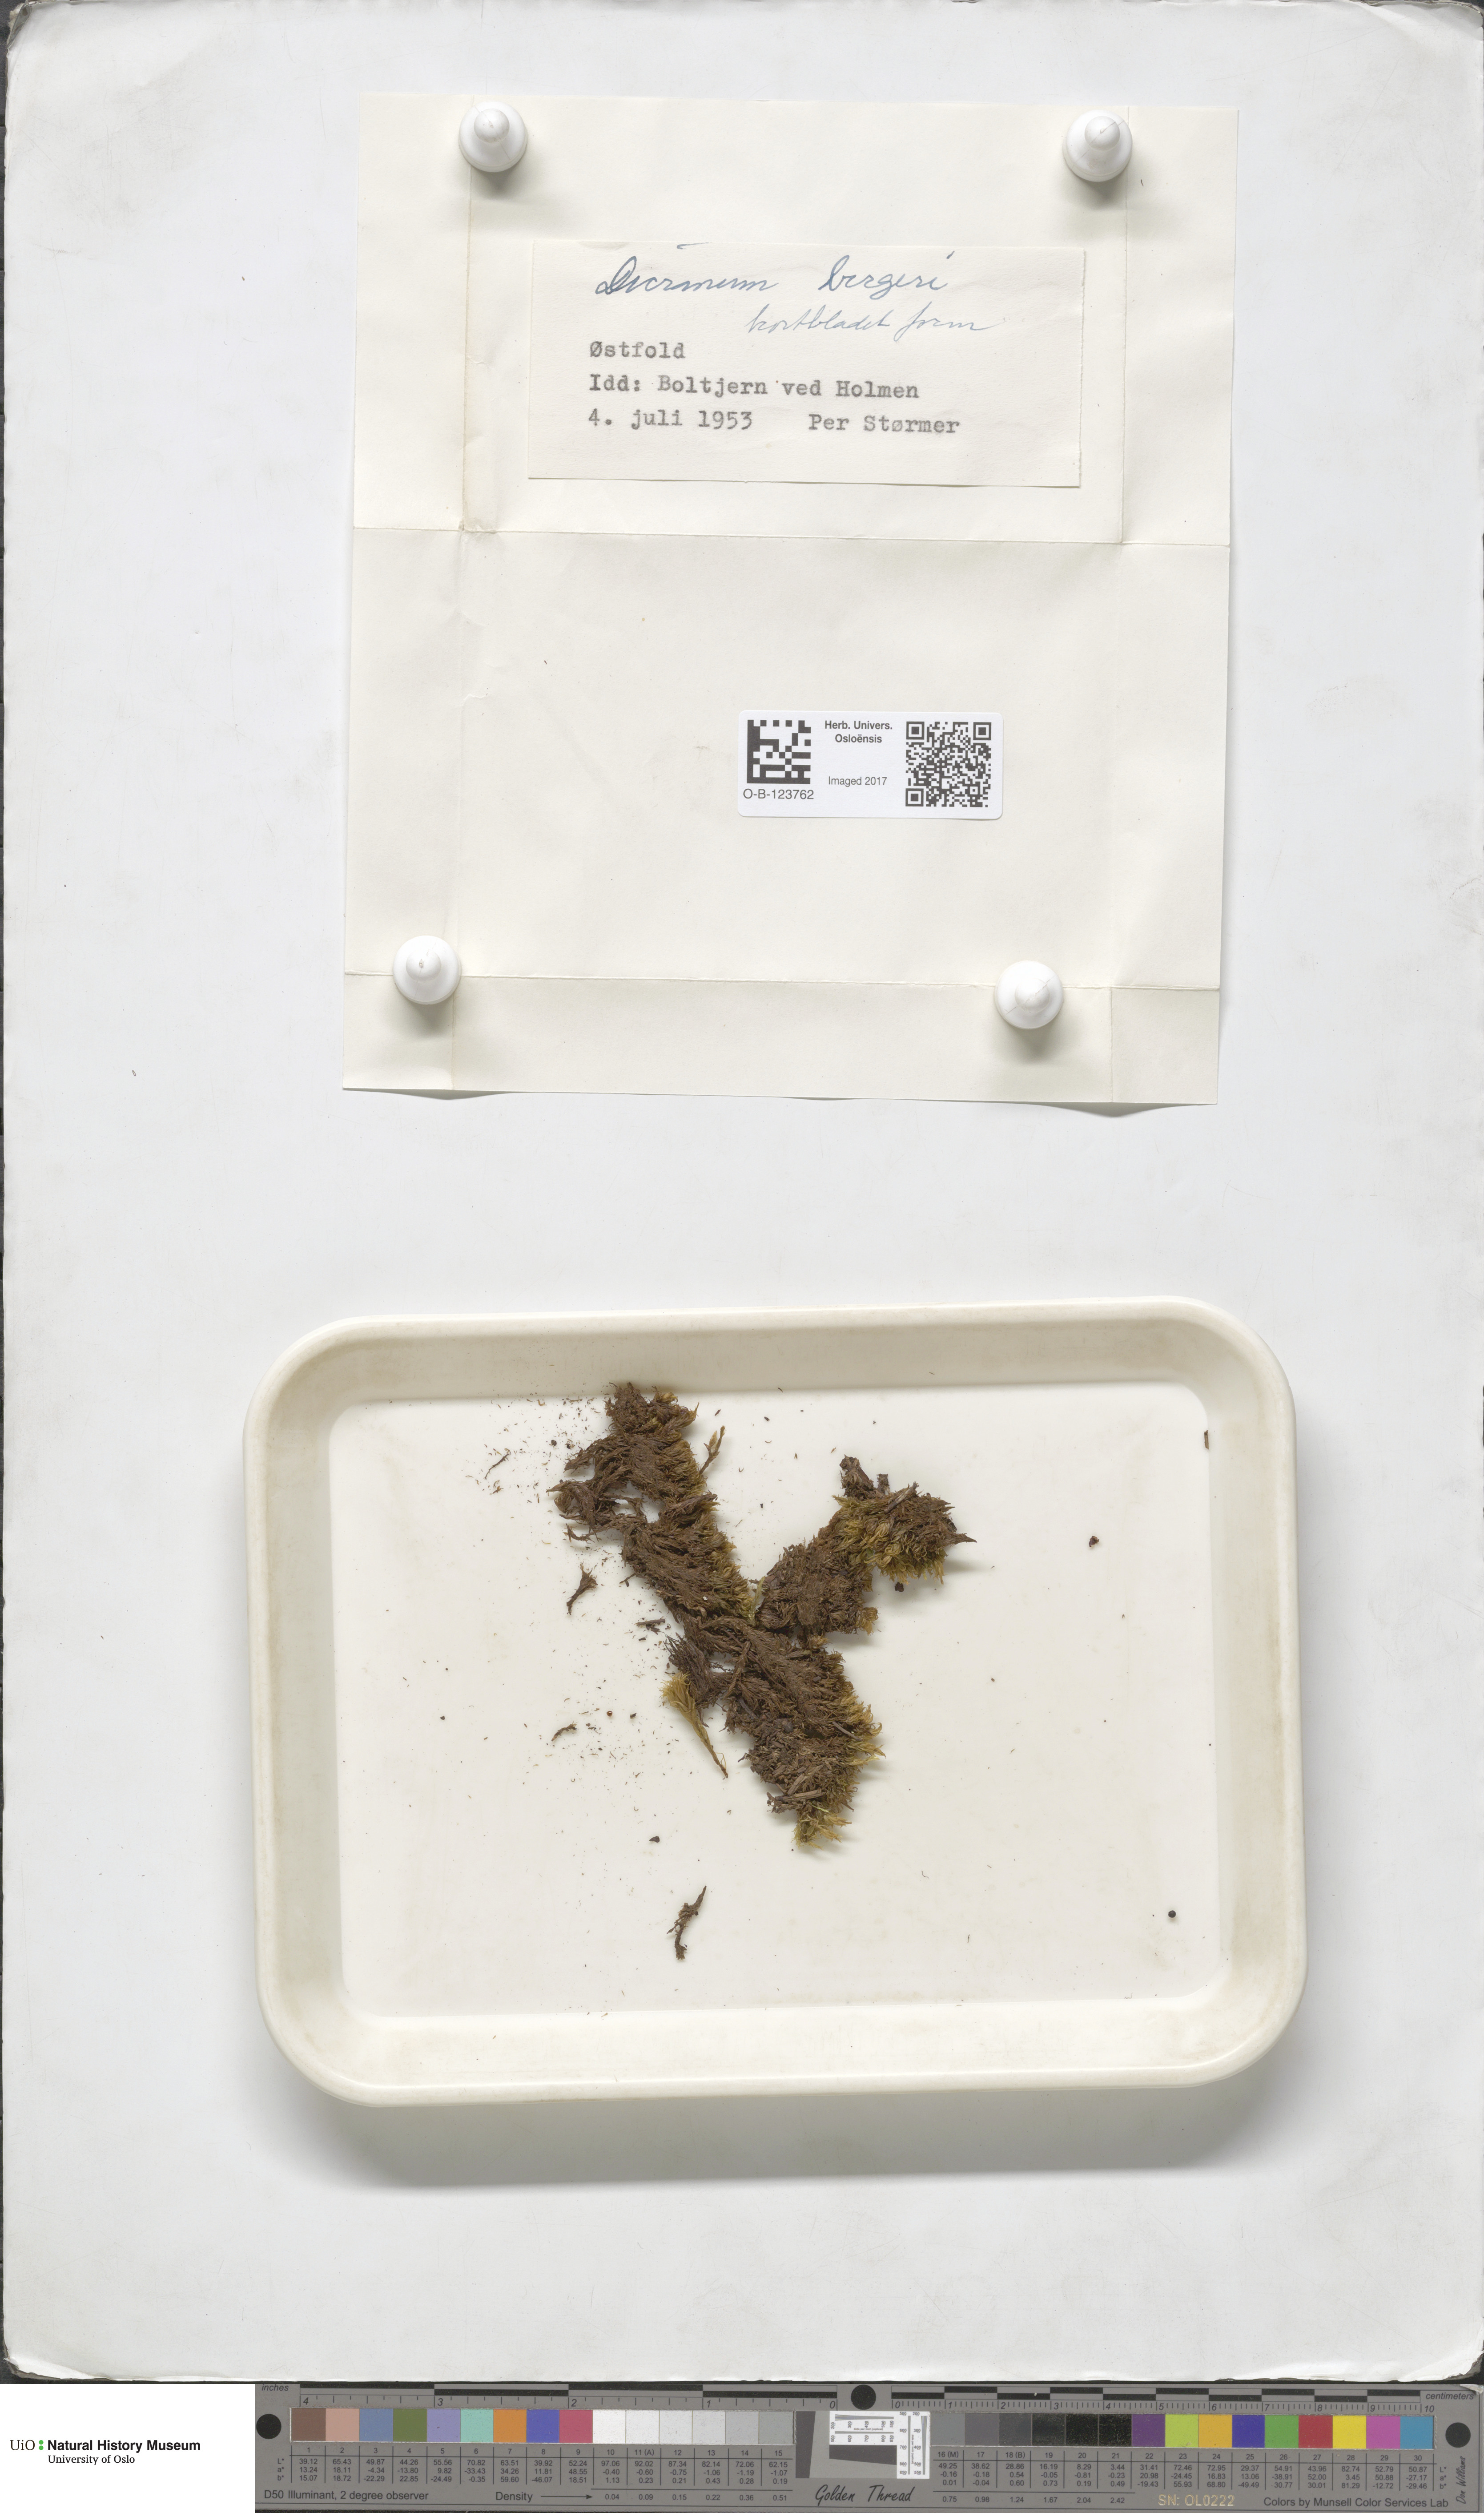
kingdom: Plantae
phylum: Bryophyta
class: Bryopsida
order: Dicranales
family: Dicranaceae
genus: Dicranum
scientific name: Dicranum undulatum
